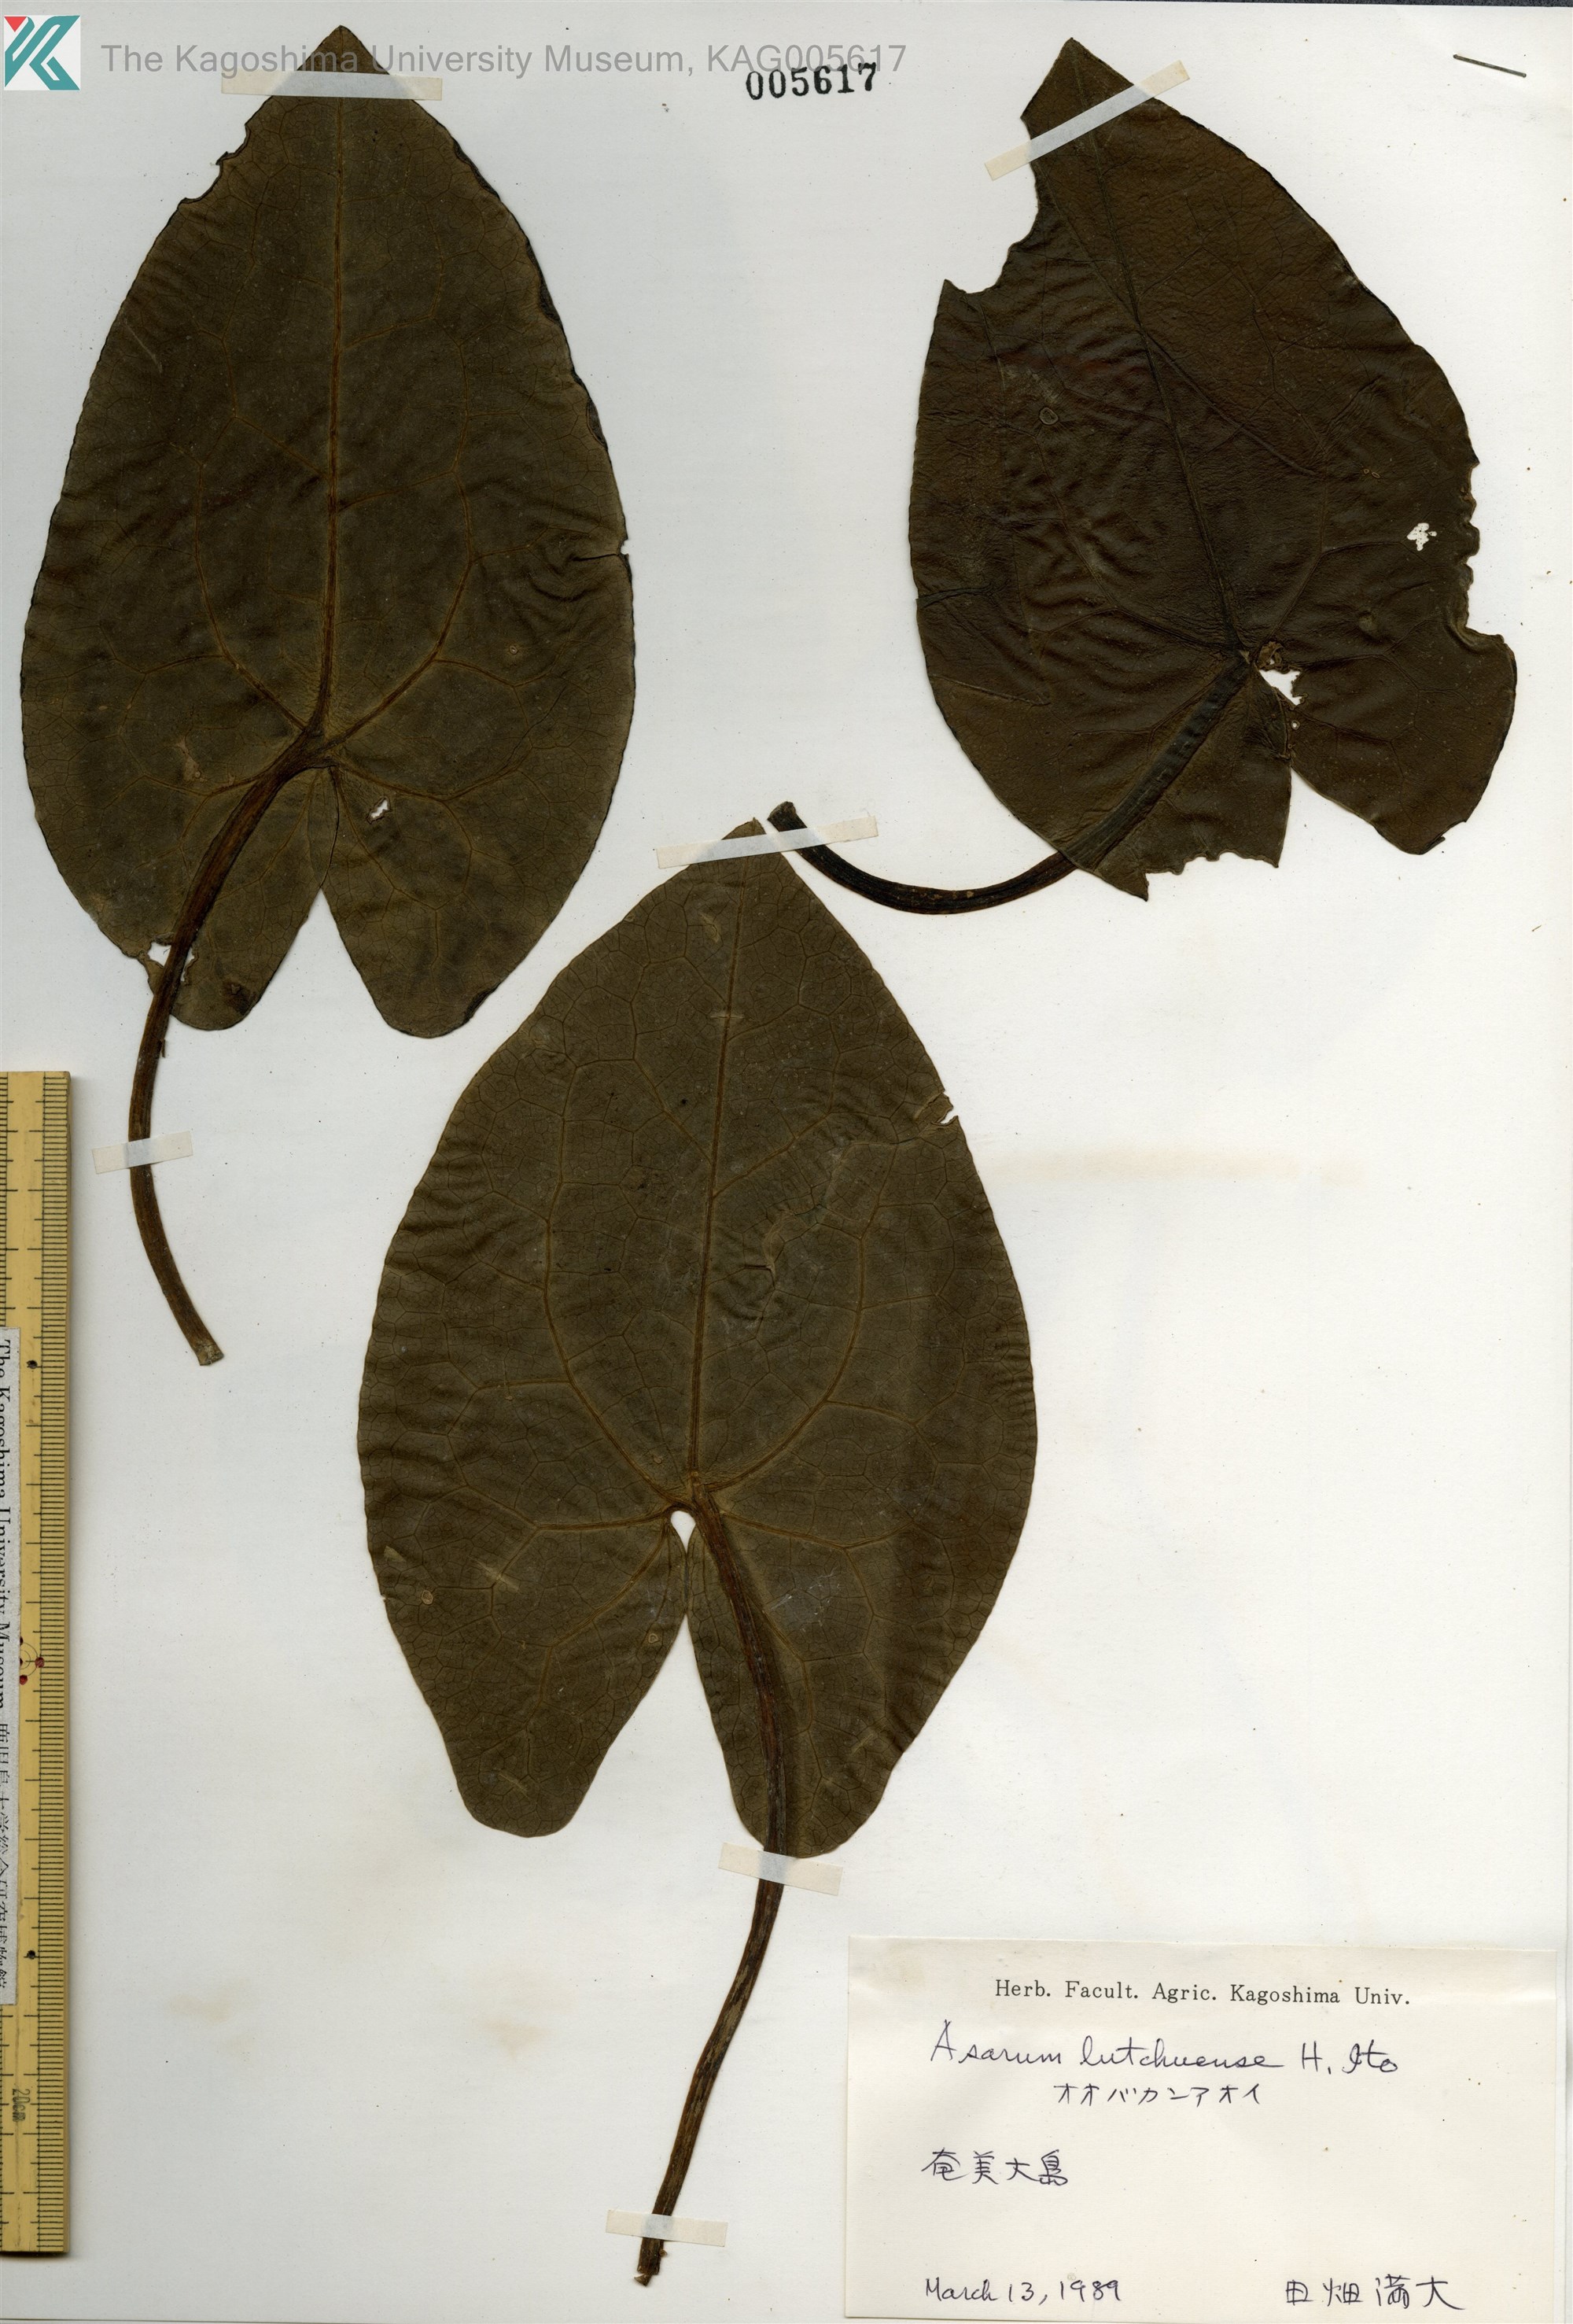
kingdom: Plantae
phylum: Tracheophyta
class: Magnoliopsida
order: Piperales
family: Aristolochiaceae
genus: Asarum
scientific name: Asarum lutchuense
